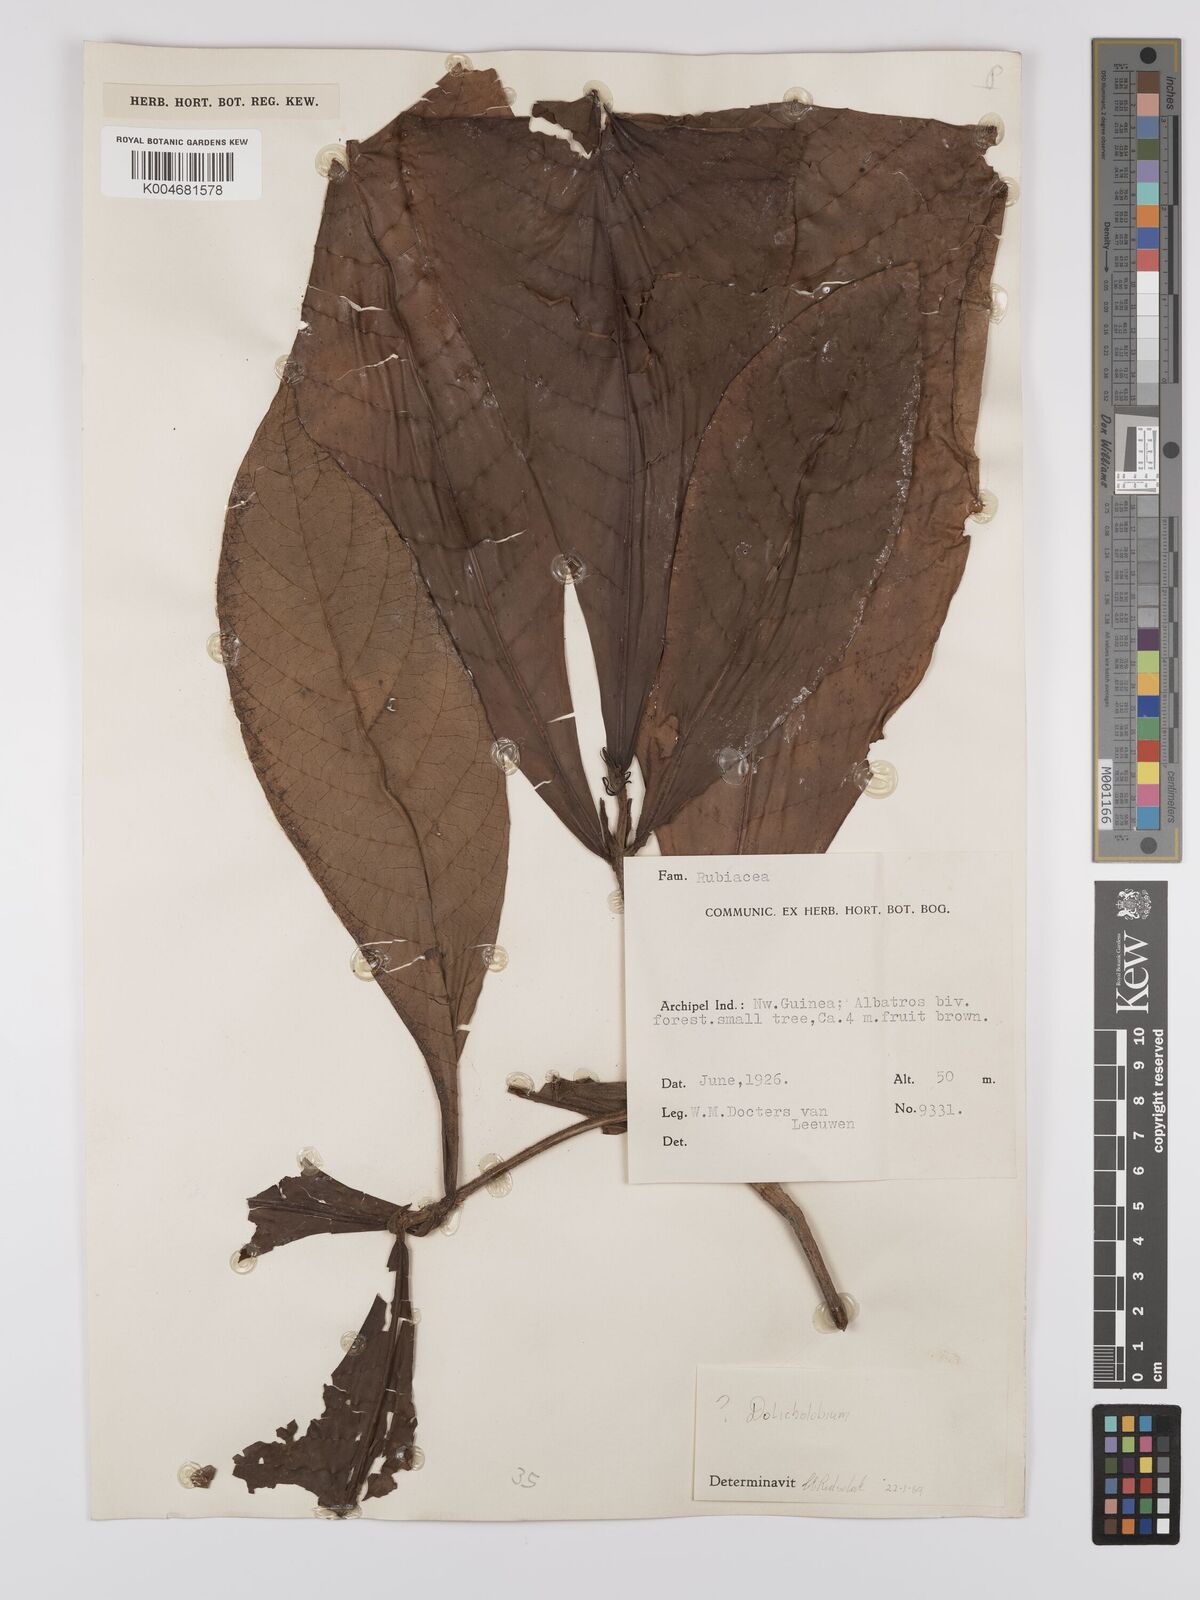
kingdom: Plantae
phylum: Tracheophyta
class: Magnoliopsida
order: Gentianales
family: Rubiaceae
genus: Dolicholobium
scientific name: Dolicholobium
